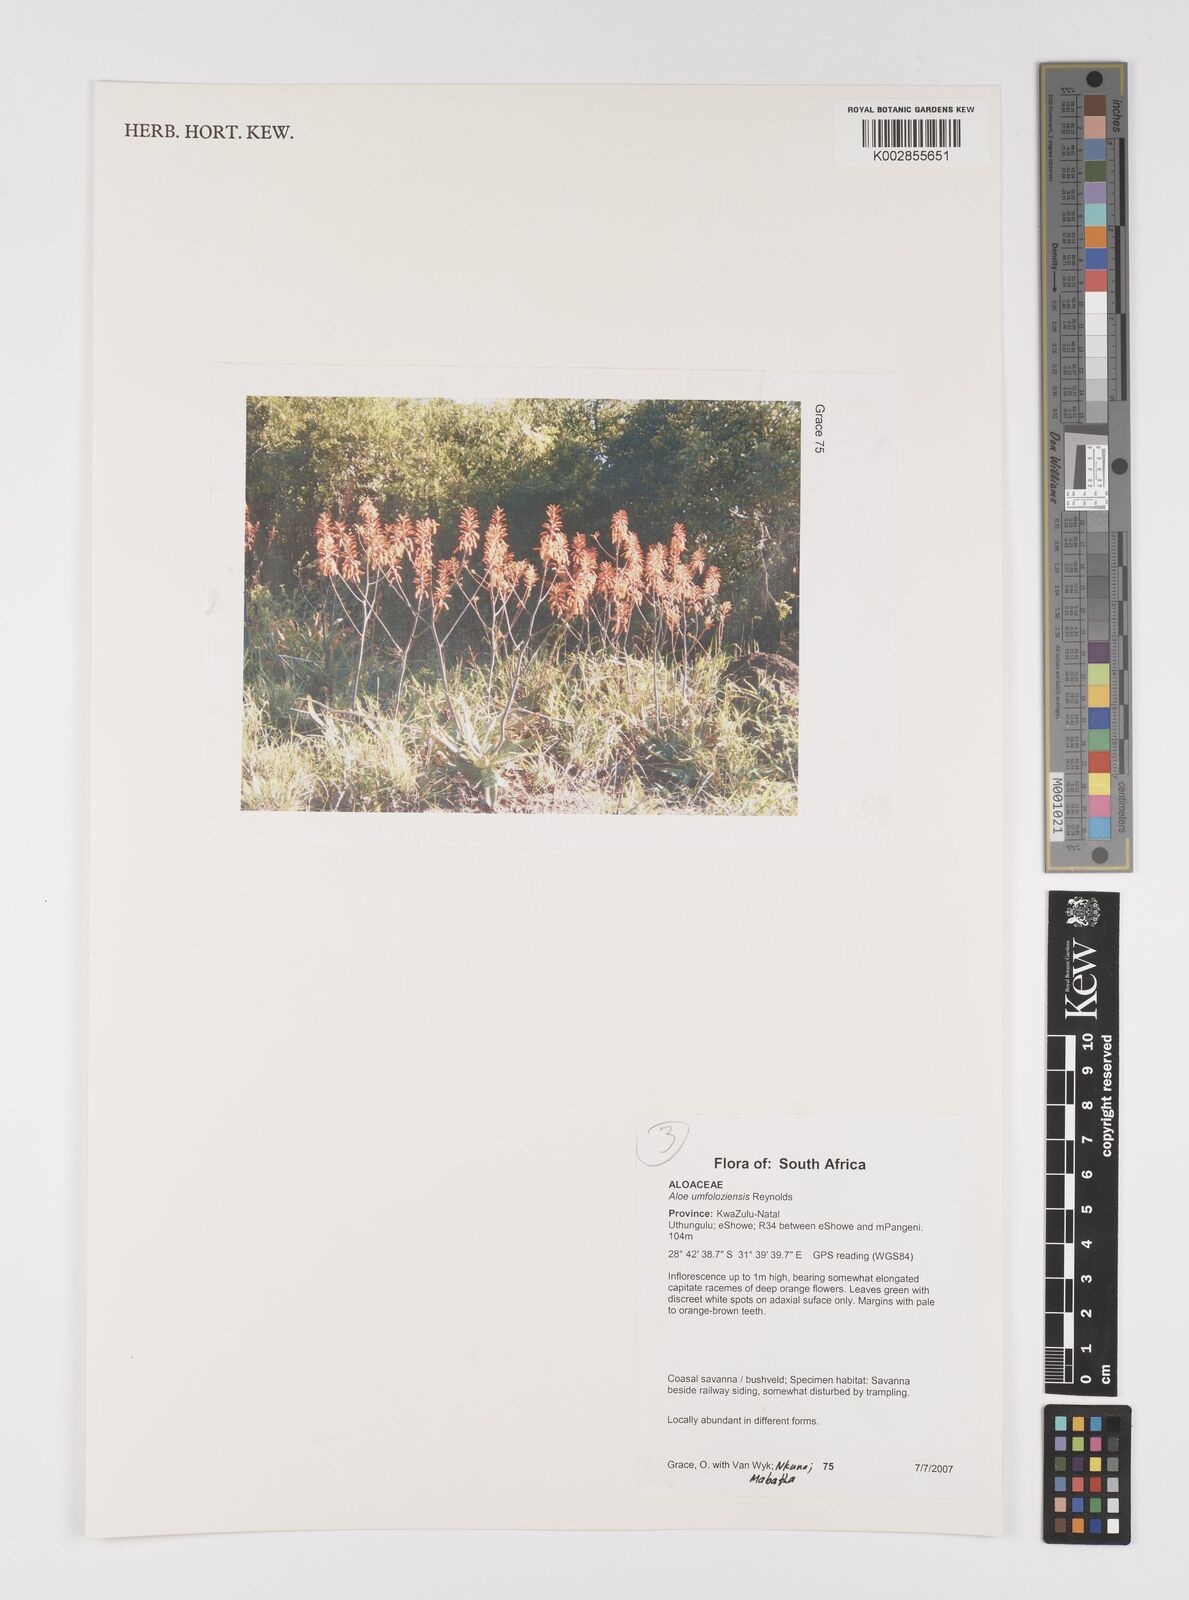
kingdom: Plantae
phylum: Tracheophyta
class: Liliopsida
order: Asparagales
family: Asphodelaceae
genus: Aloe
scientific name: Aloe umfoloziensis
